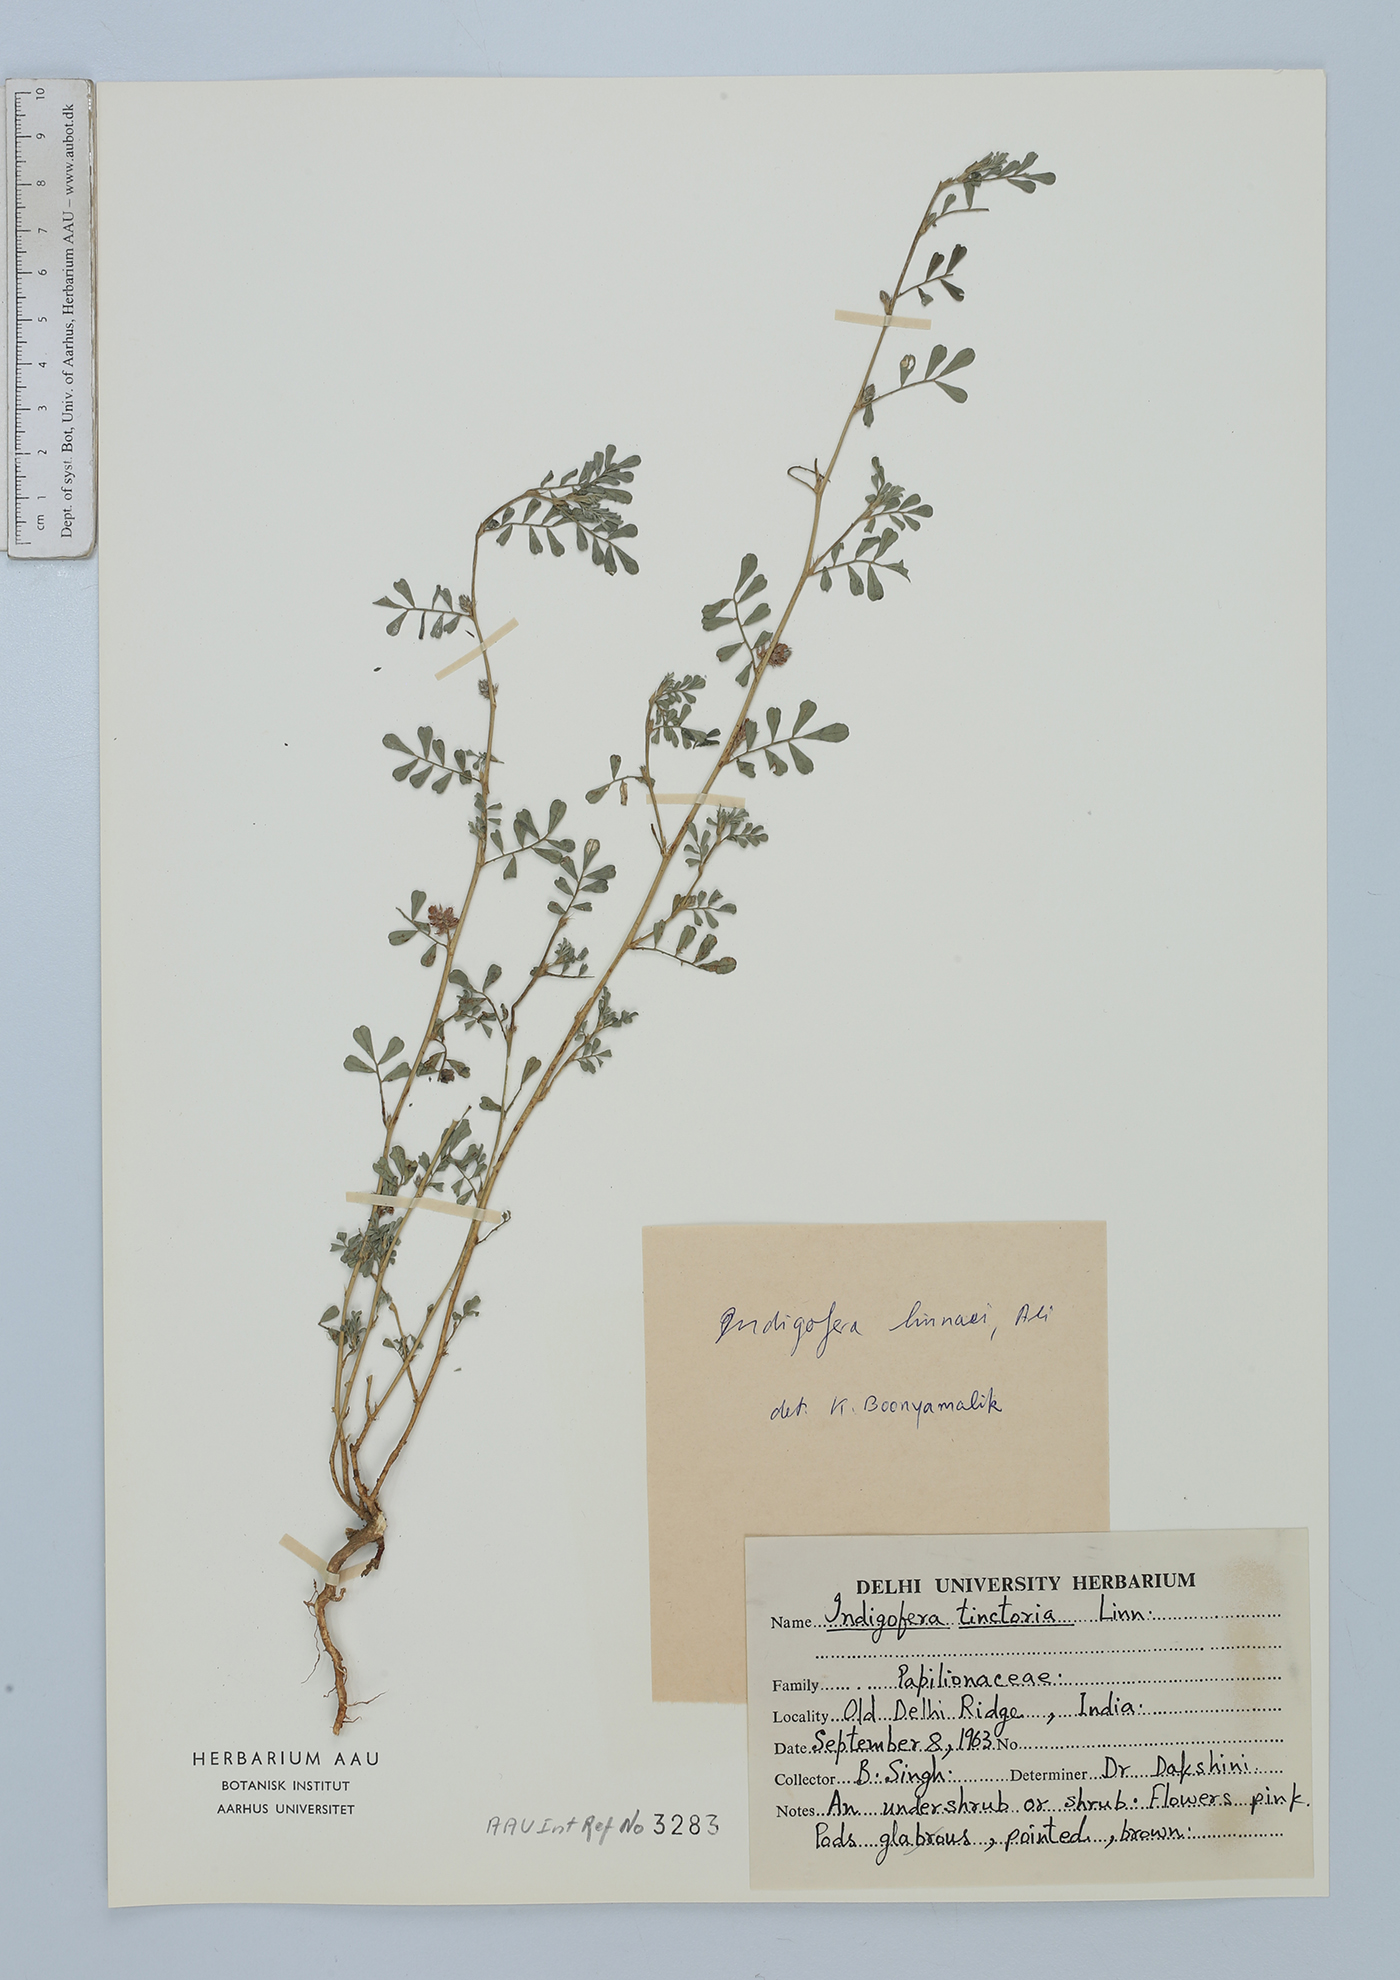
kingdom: Plantae
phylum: Tracheophyta
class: Magnoliopsida
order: Fabales
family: Fabaceae
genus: Indigofera
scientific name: Indigofera linnaei
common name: Nine-leaf indigo
